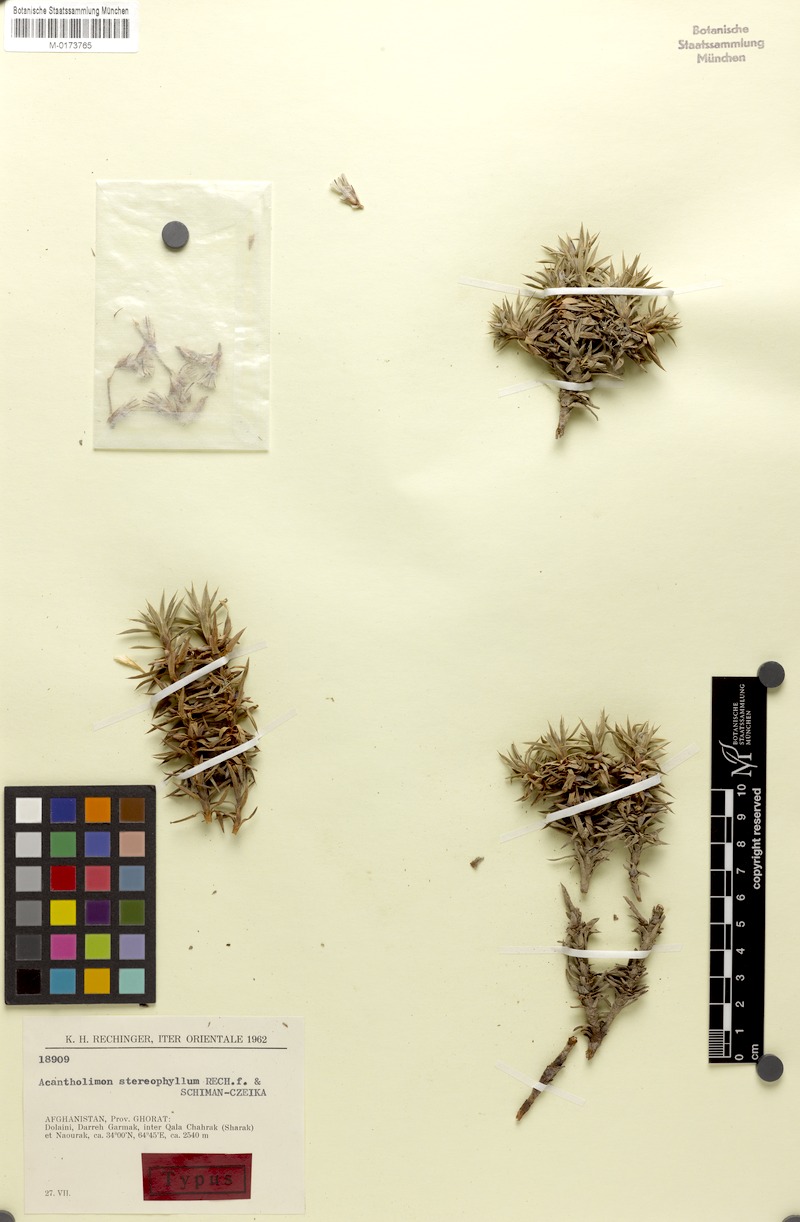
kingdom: Plantae
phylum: Tracheophyta
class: Magnoliopsida
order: Caryophyllales
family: Plumbaginaceae
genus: Acantholimon
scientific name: Acantholimon stereophyllum
